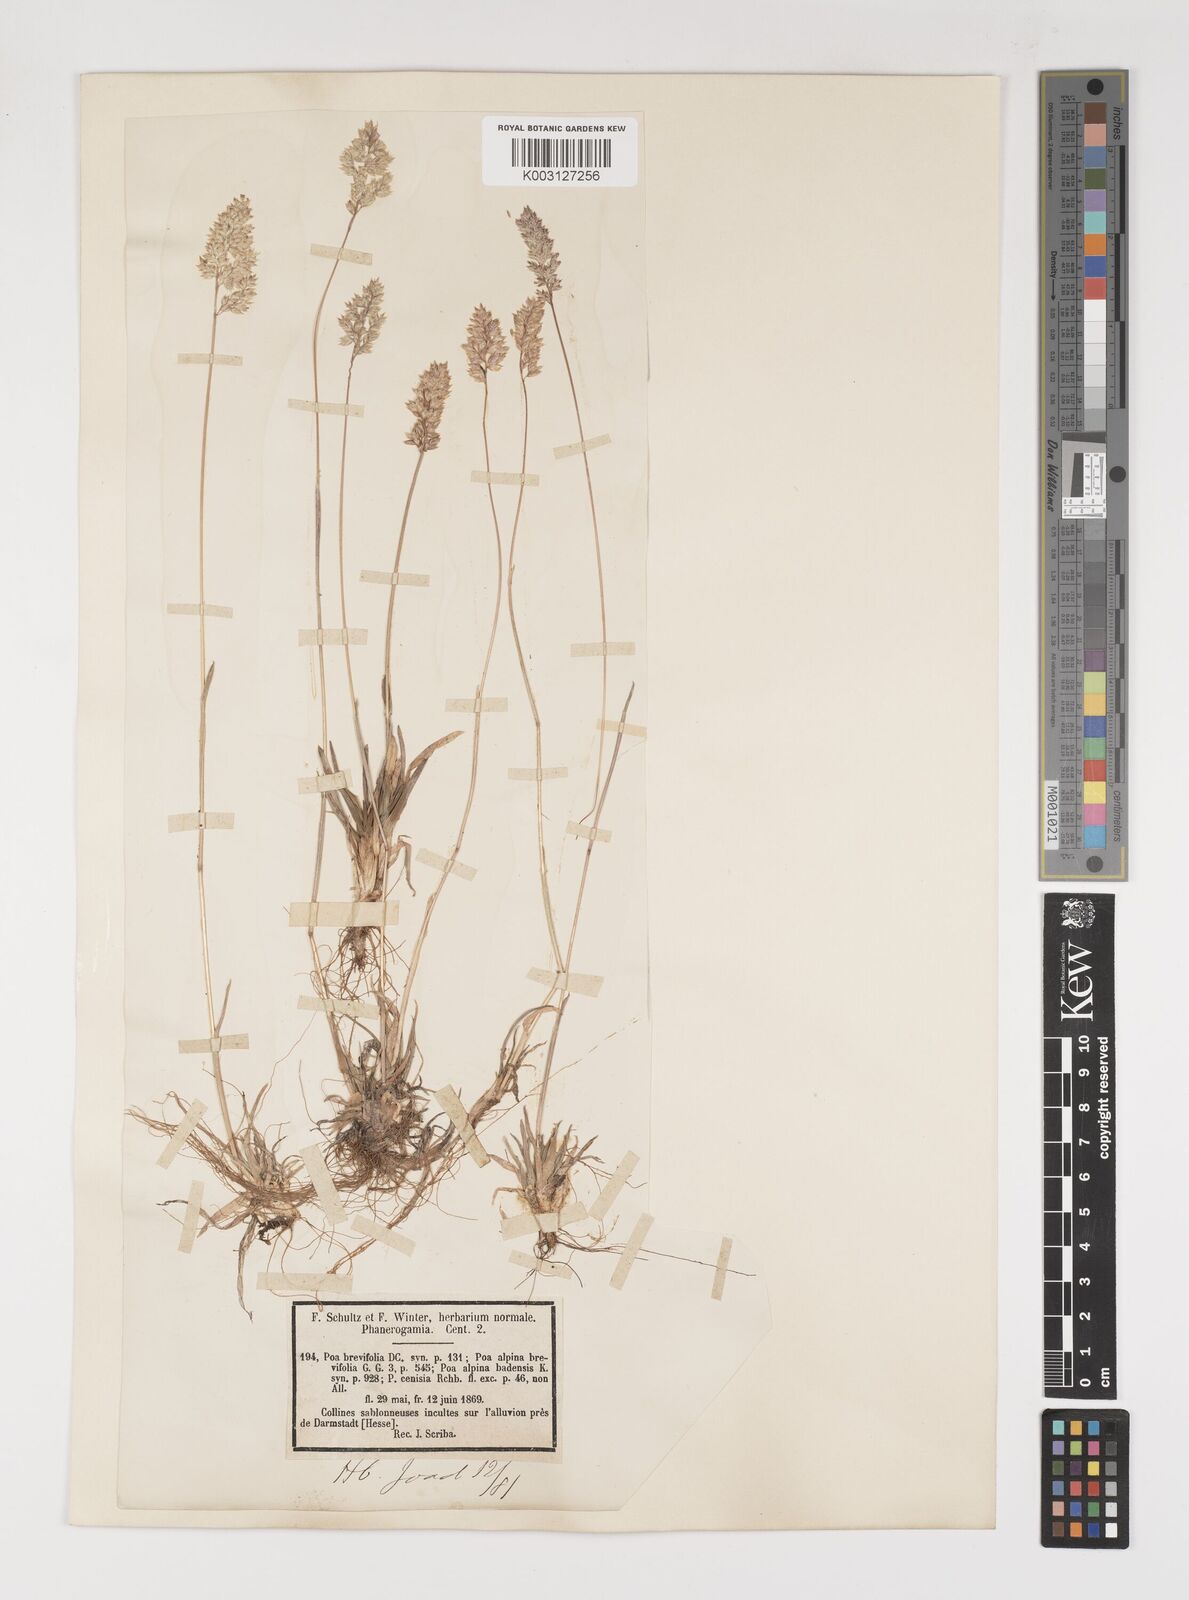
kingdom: Plantae
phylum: Tracheophyta
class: Liliopsida
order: Poales
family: Poaceae
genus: Poa
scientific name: Poa alpina
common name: Alpine bluegrass
